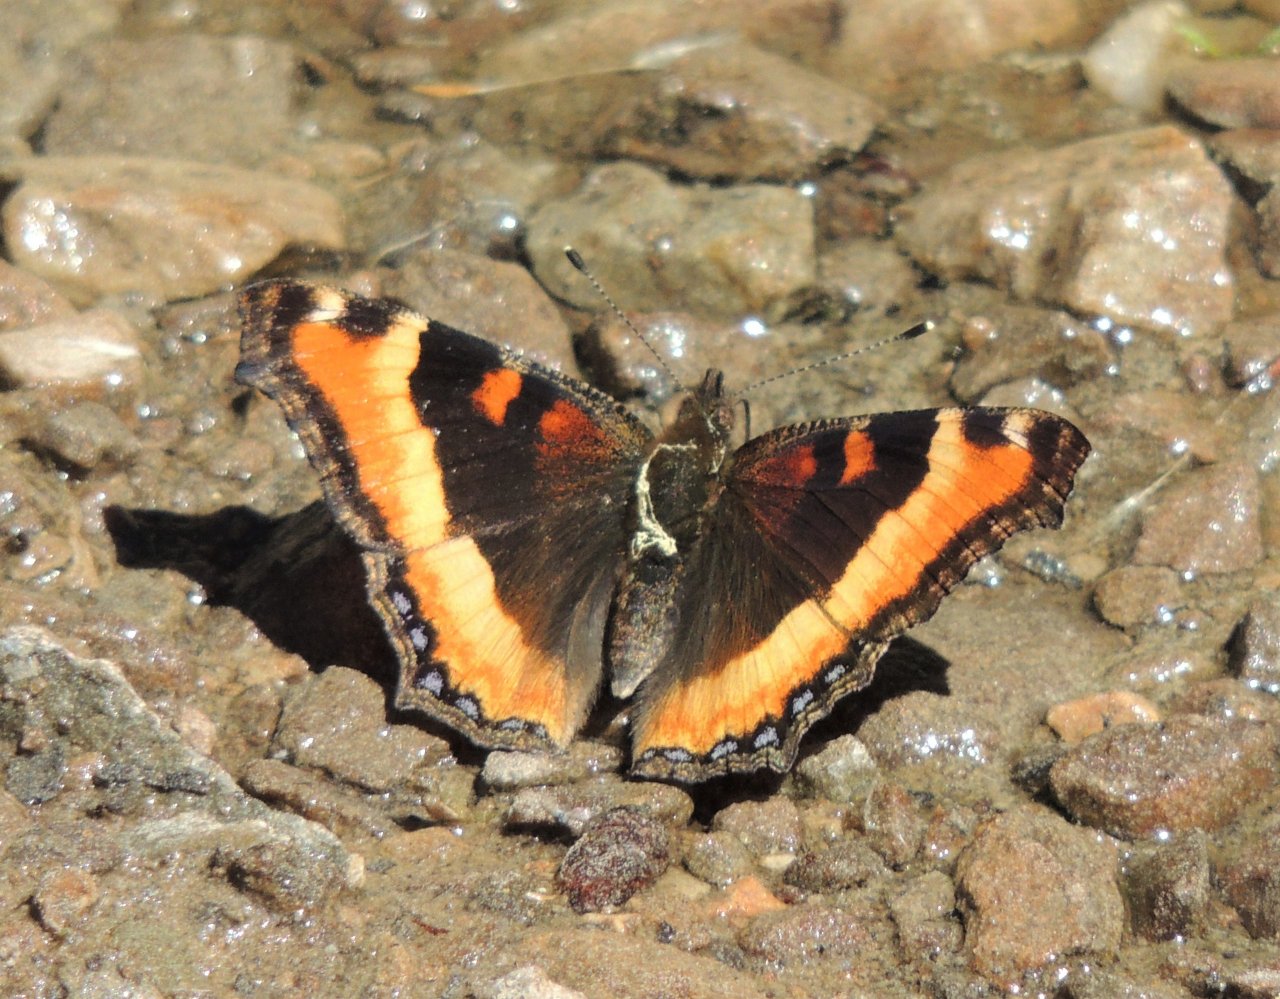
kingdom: Animalia
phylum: Arthropoda
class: Insecta
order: Lepidoptera
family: Nymphalidae
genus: Aglais
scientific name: Aglais milberti
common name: Milbert's Tortoiseshell
